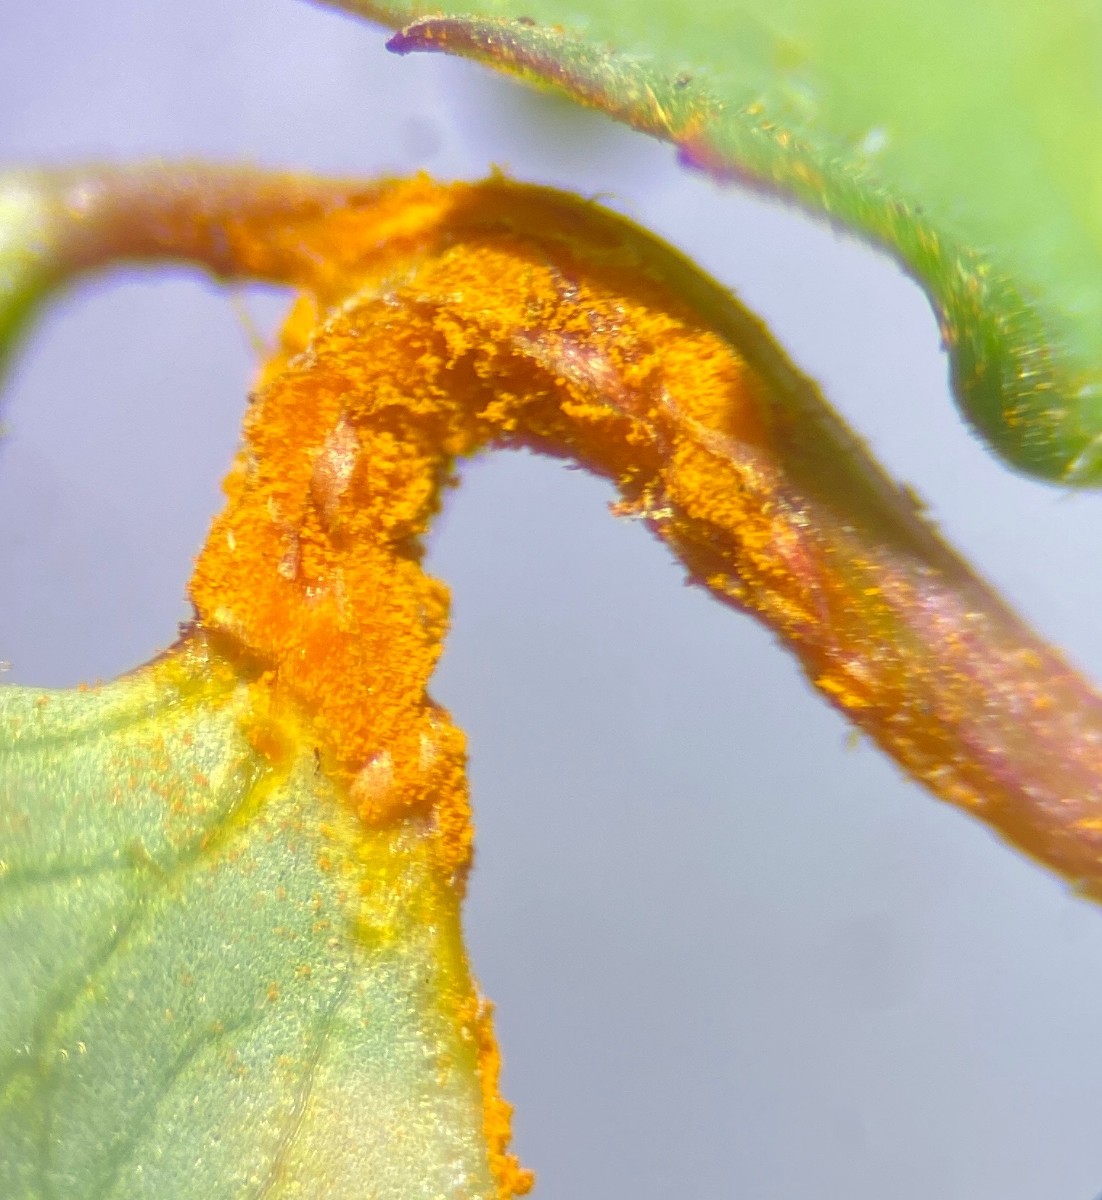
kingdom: Fungi
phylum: Basidiomycota
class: Pucciniomycetes
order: Pucciniales
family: Phragmidiaceae
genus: Phragmidium
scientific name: Phragmidium sanguisorbae
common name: Salad burnet rust
